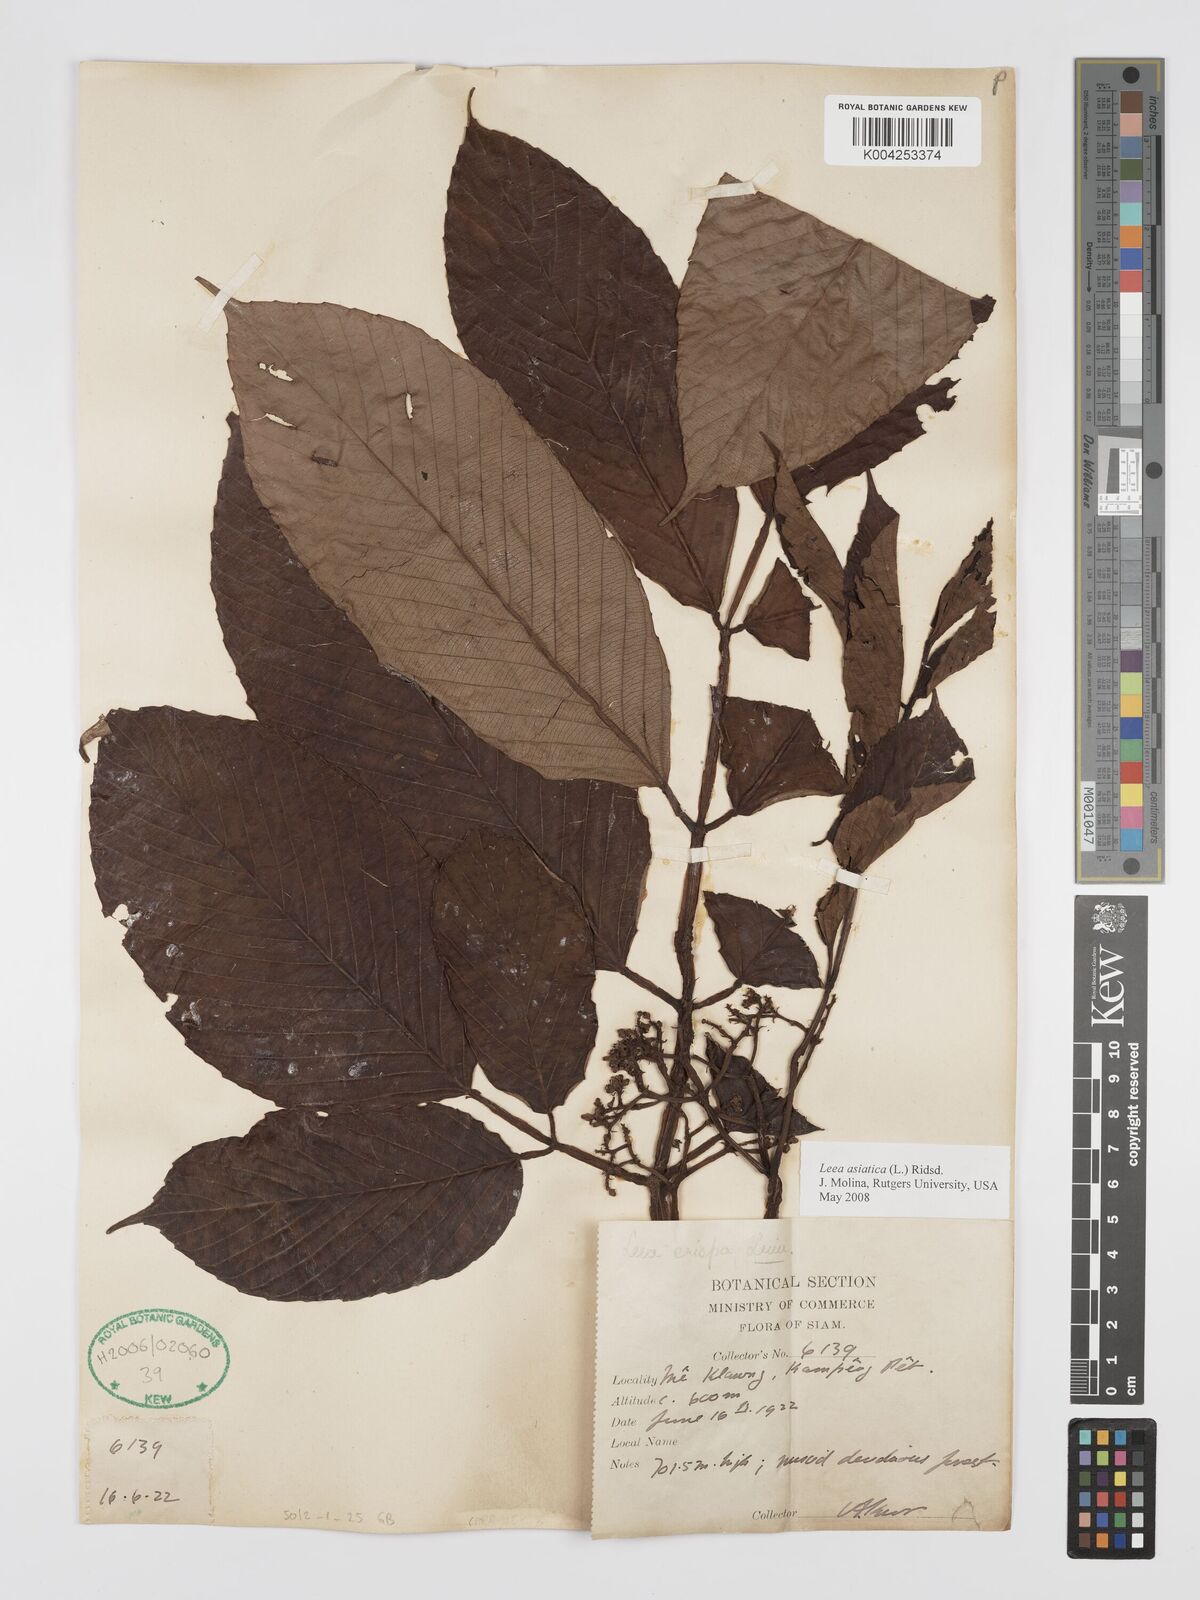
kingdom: Plantae
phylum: Tracheophyta
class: Magnoliopsida
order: Vitales
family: Vitaceae
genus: Leea
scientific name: Leea asiatica
